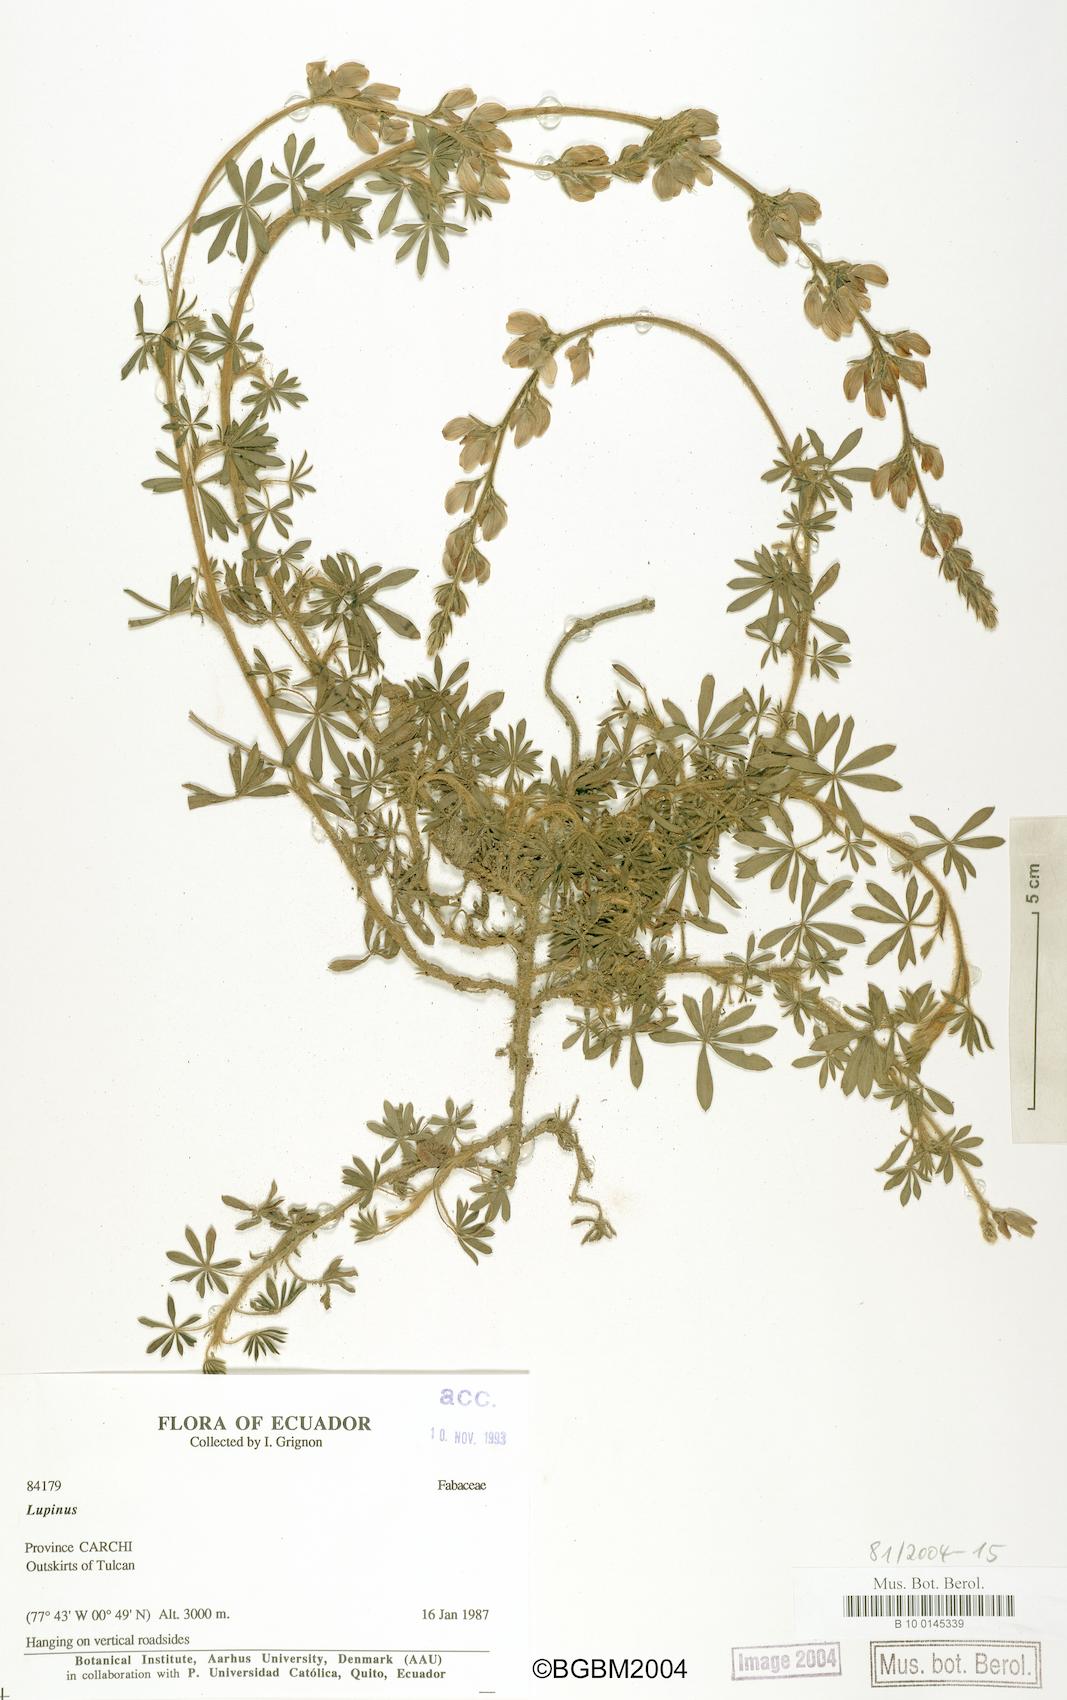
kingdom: Plantae
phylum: Tracheophyta
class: Magnoliopsida
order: Fabales
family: Fabaceae
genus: Lupinus
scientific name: Lupinus
